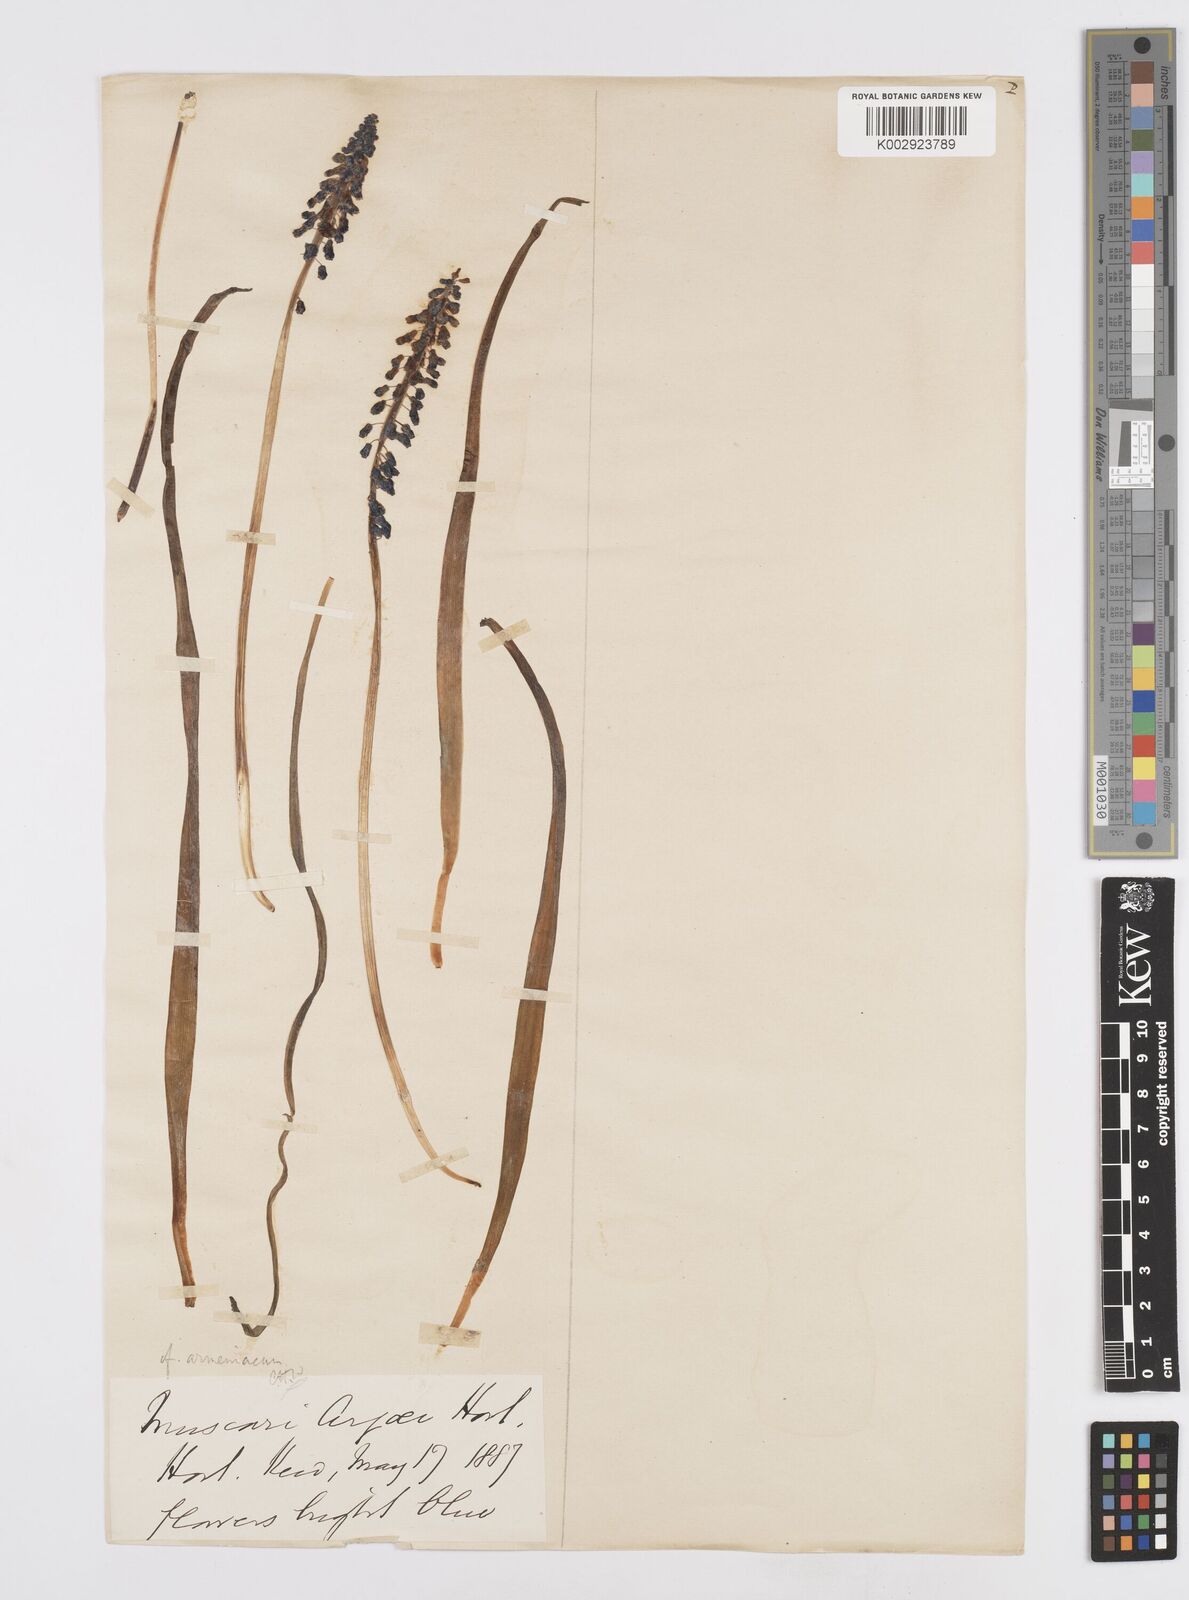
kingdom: Plantae
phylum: Tracheophyta
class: Liliopsida
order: Asparagales
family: Asparagaceae
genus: Muscari
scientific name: Muscari
